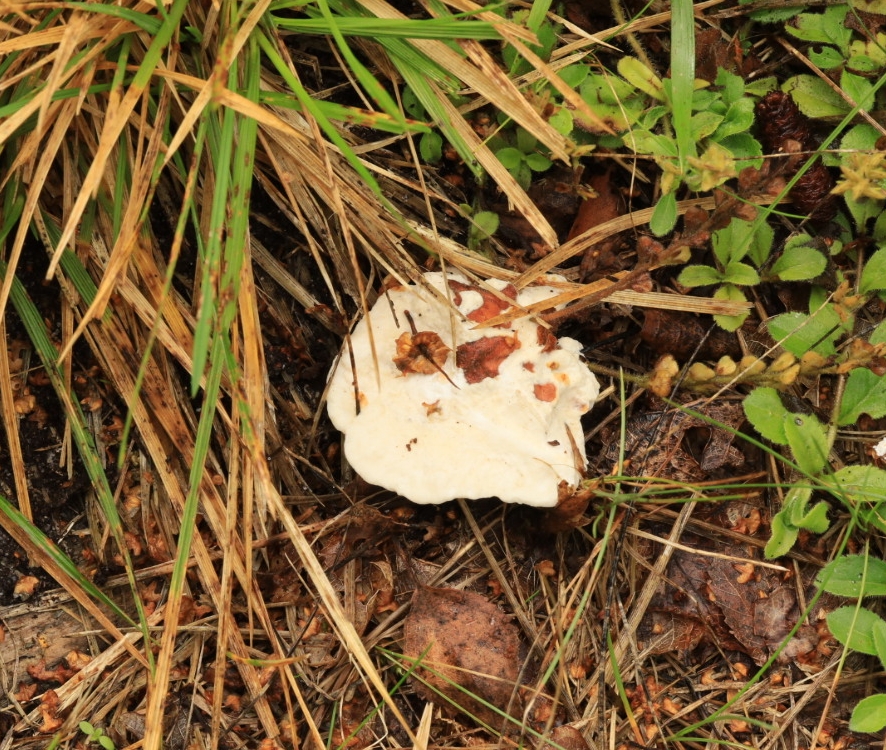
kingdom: Fungi
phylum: Basidiomycota
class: Agaricomycetes
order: Polyporales
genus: Calcipostia
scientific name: Calcipostia
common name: kødporesvamnp
